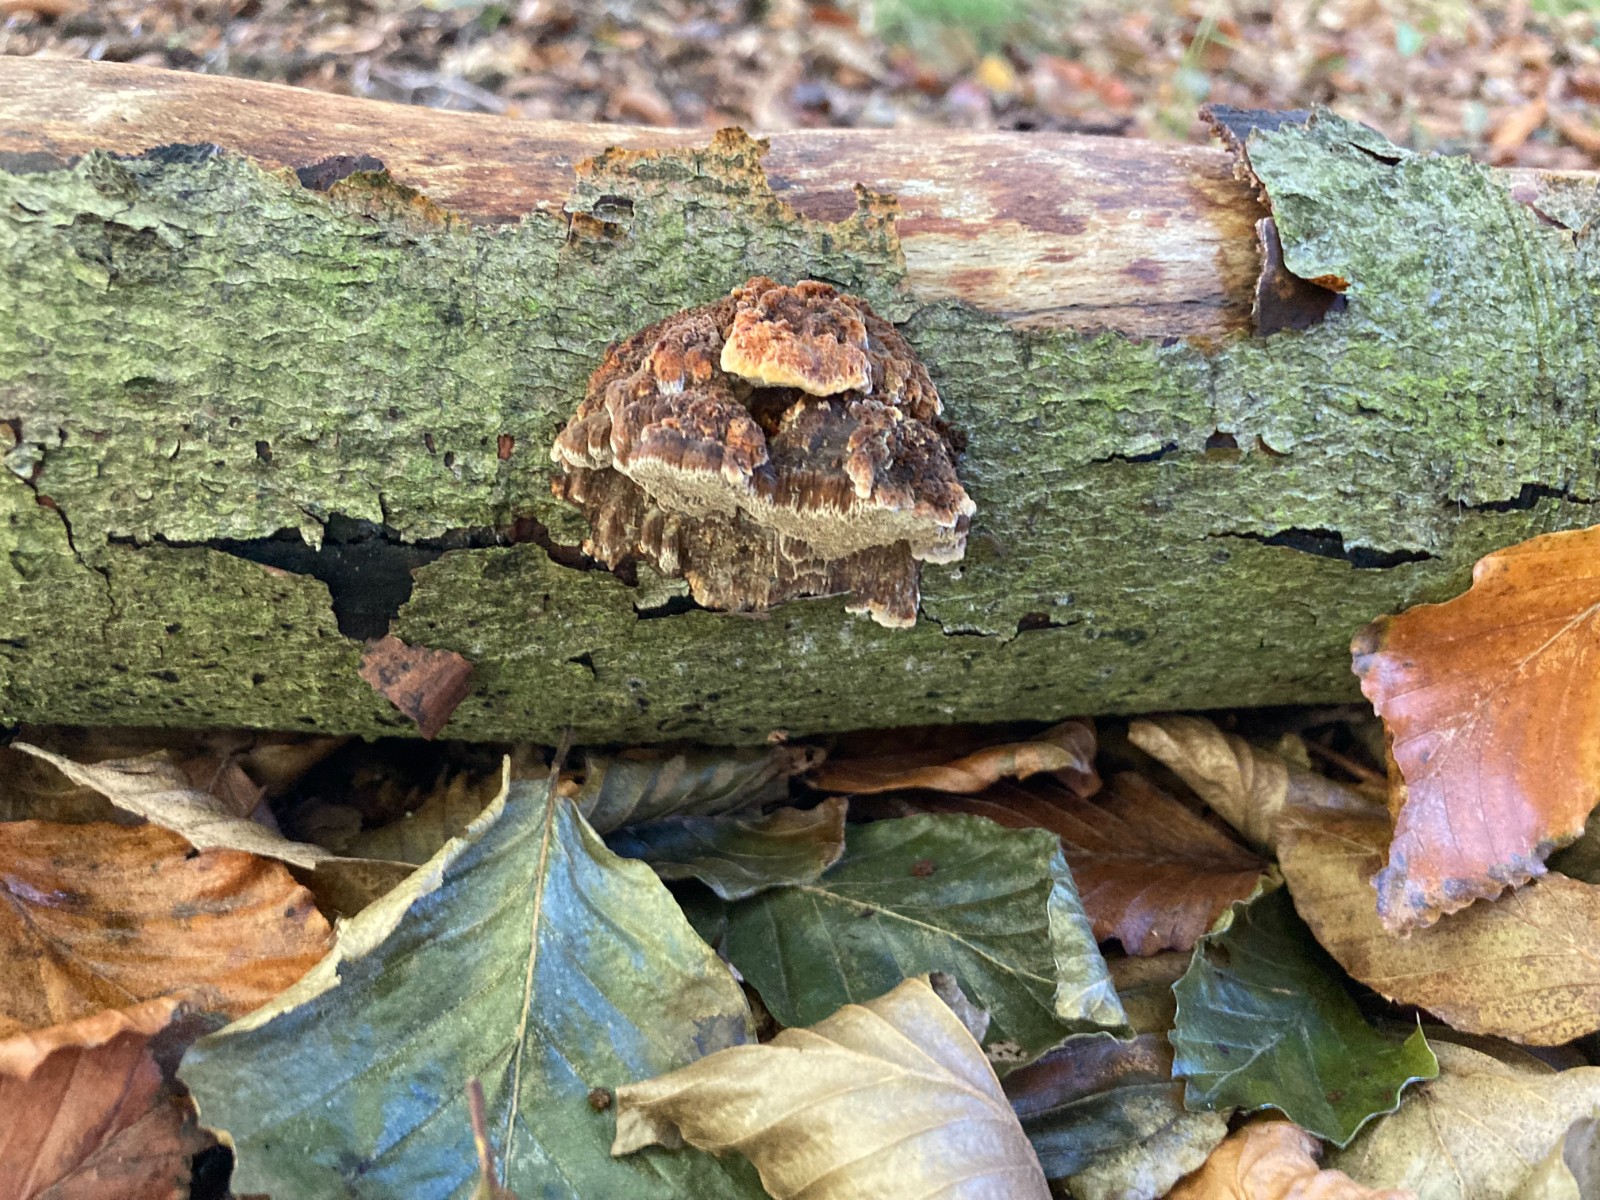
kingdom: Fungi
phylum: Basidiomycota
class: Agaricomycetes
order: Hymenochaetales
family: Hymenochaetaceae
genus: Mensularia
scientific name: Mensularia nodulosa
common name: bøge-spejlporesvamp
